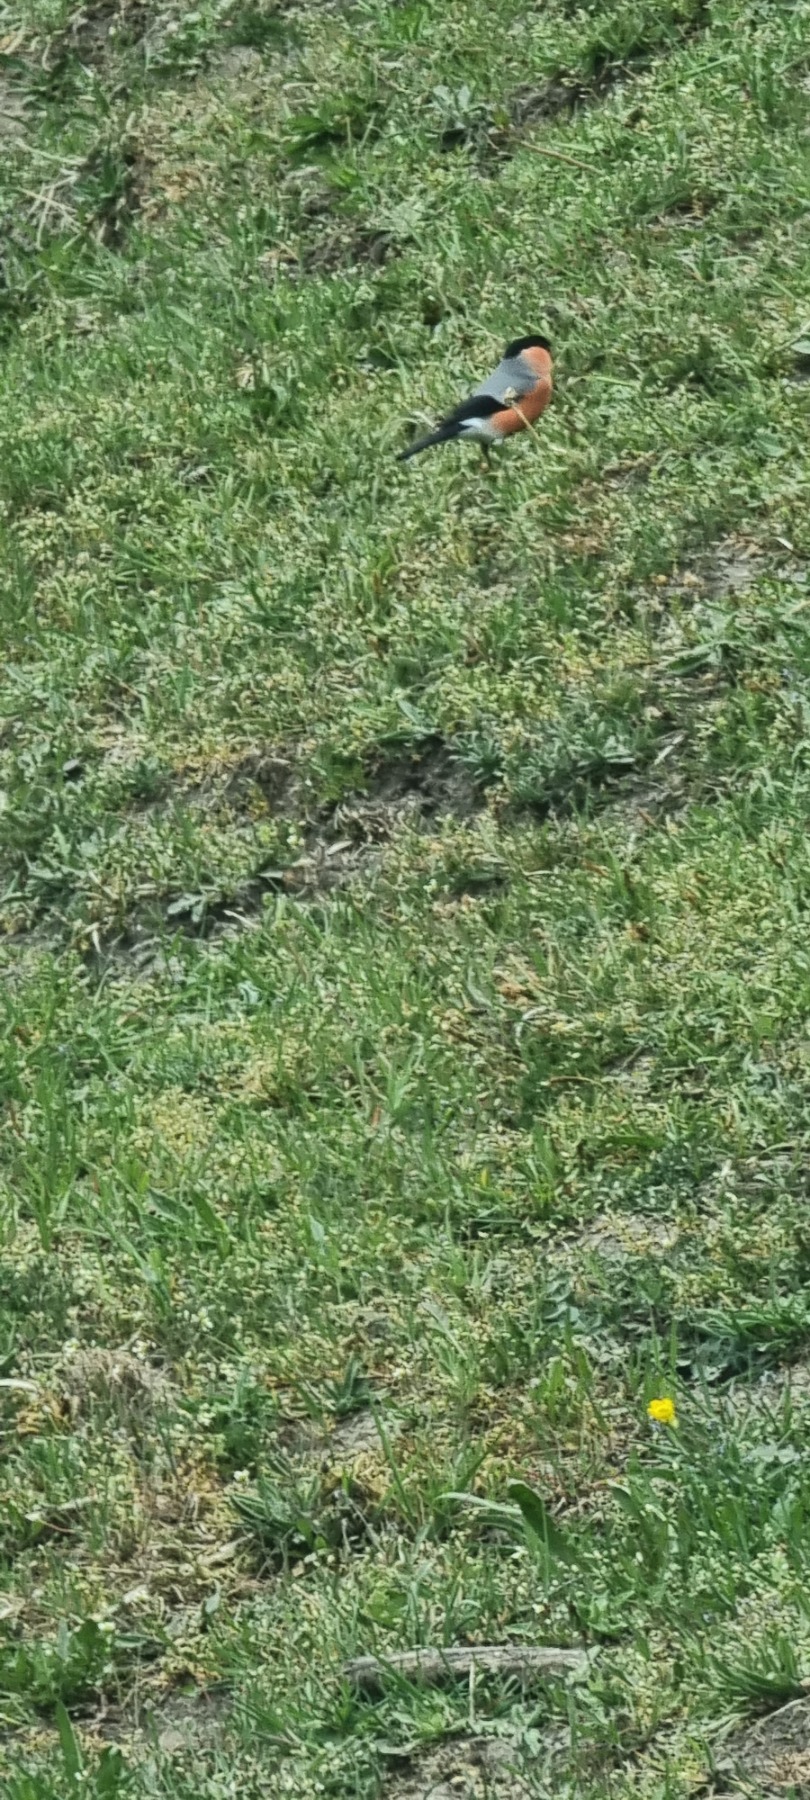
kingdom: Animalia
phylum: Chordata
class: Aves
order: Passeriformes
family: Fringillidae
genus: Pyrrhula
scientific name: Pyrrhula pyrrhula
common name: Dompap
